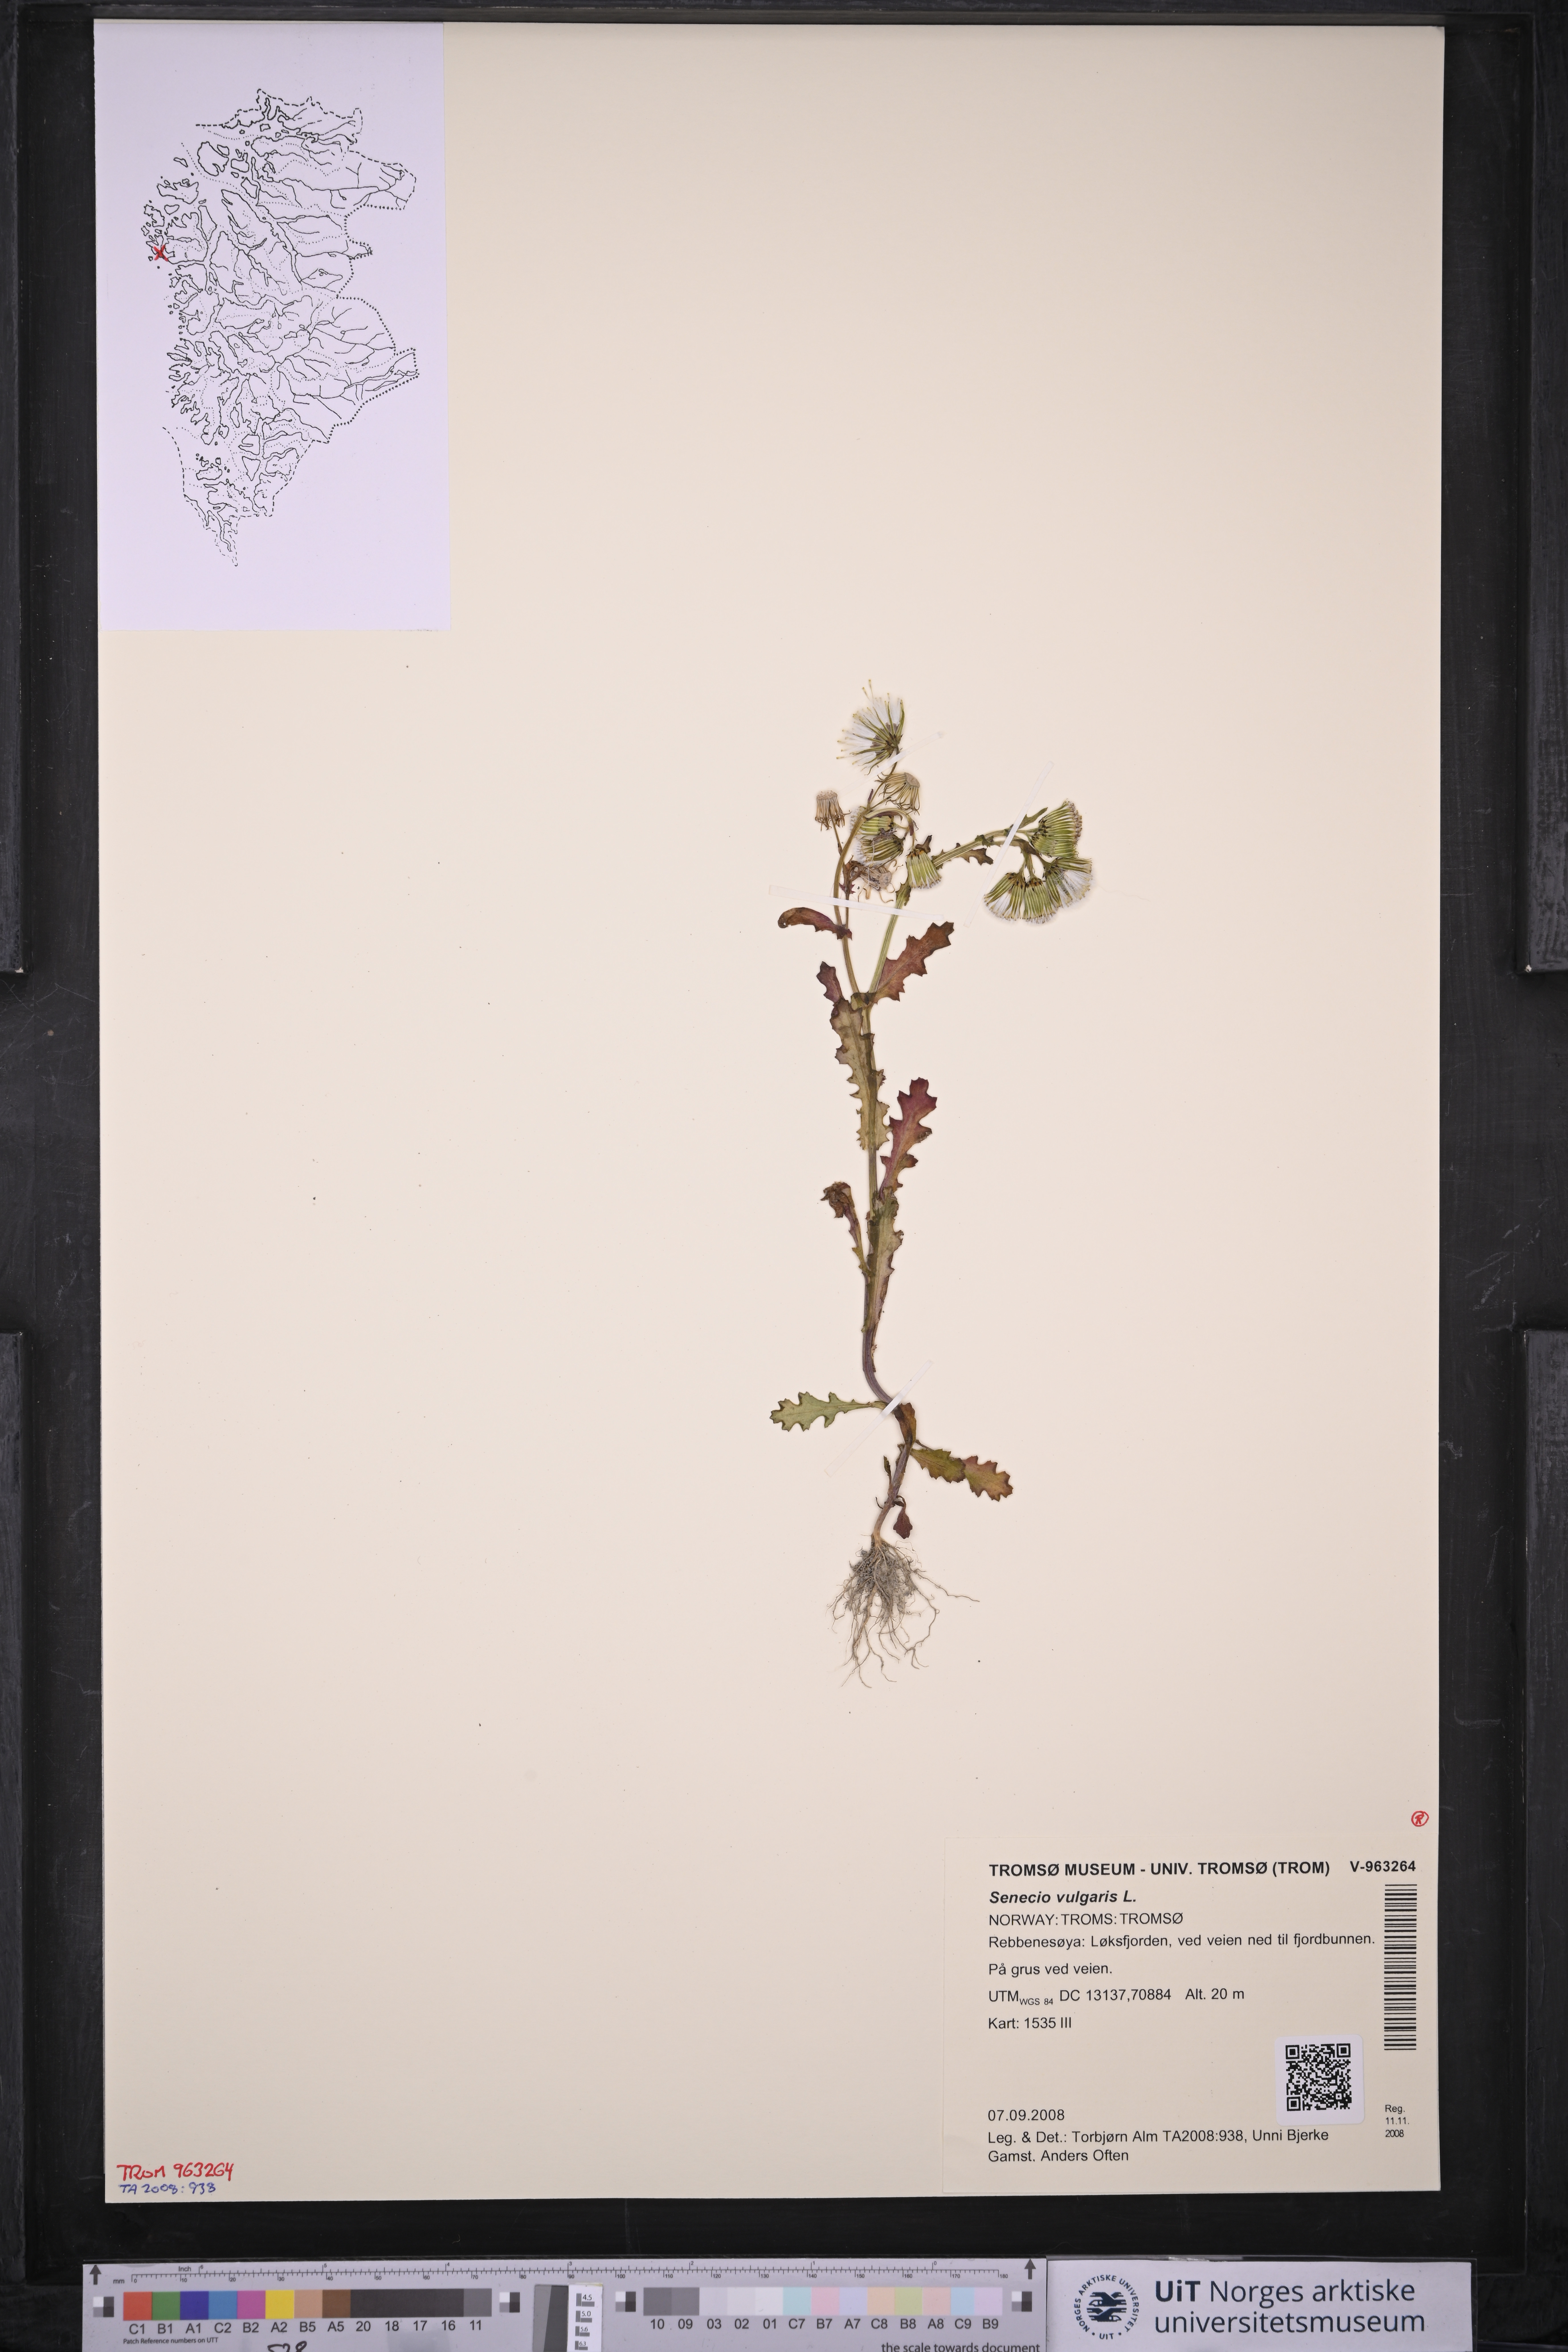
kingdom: Plantae
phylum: Tracheophyta
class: Magnoliopsida
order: Asterales
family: Asteraceae
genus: Senecio
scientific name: Senecio vulgaris
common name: Old-man-in-the-spring
